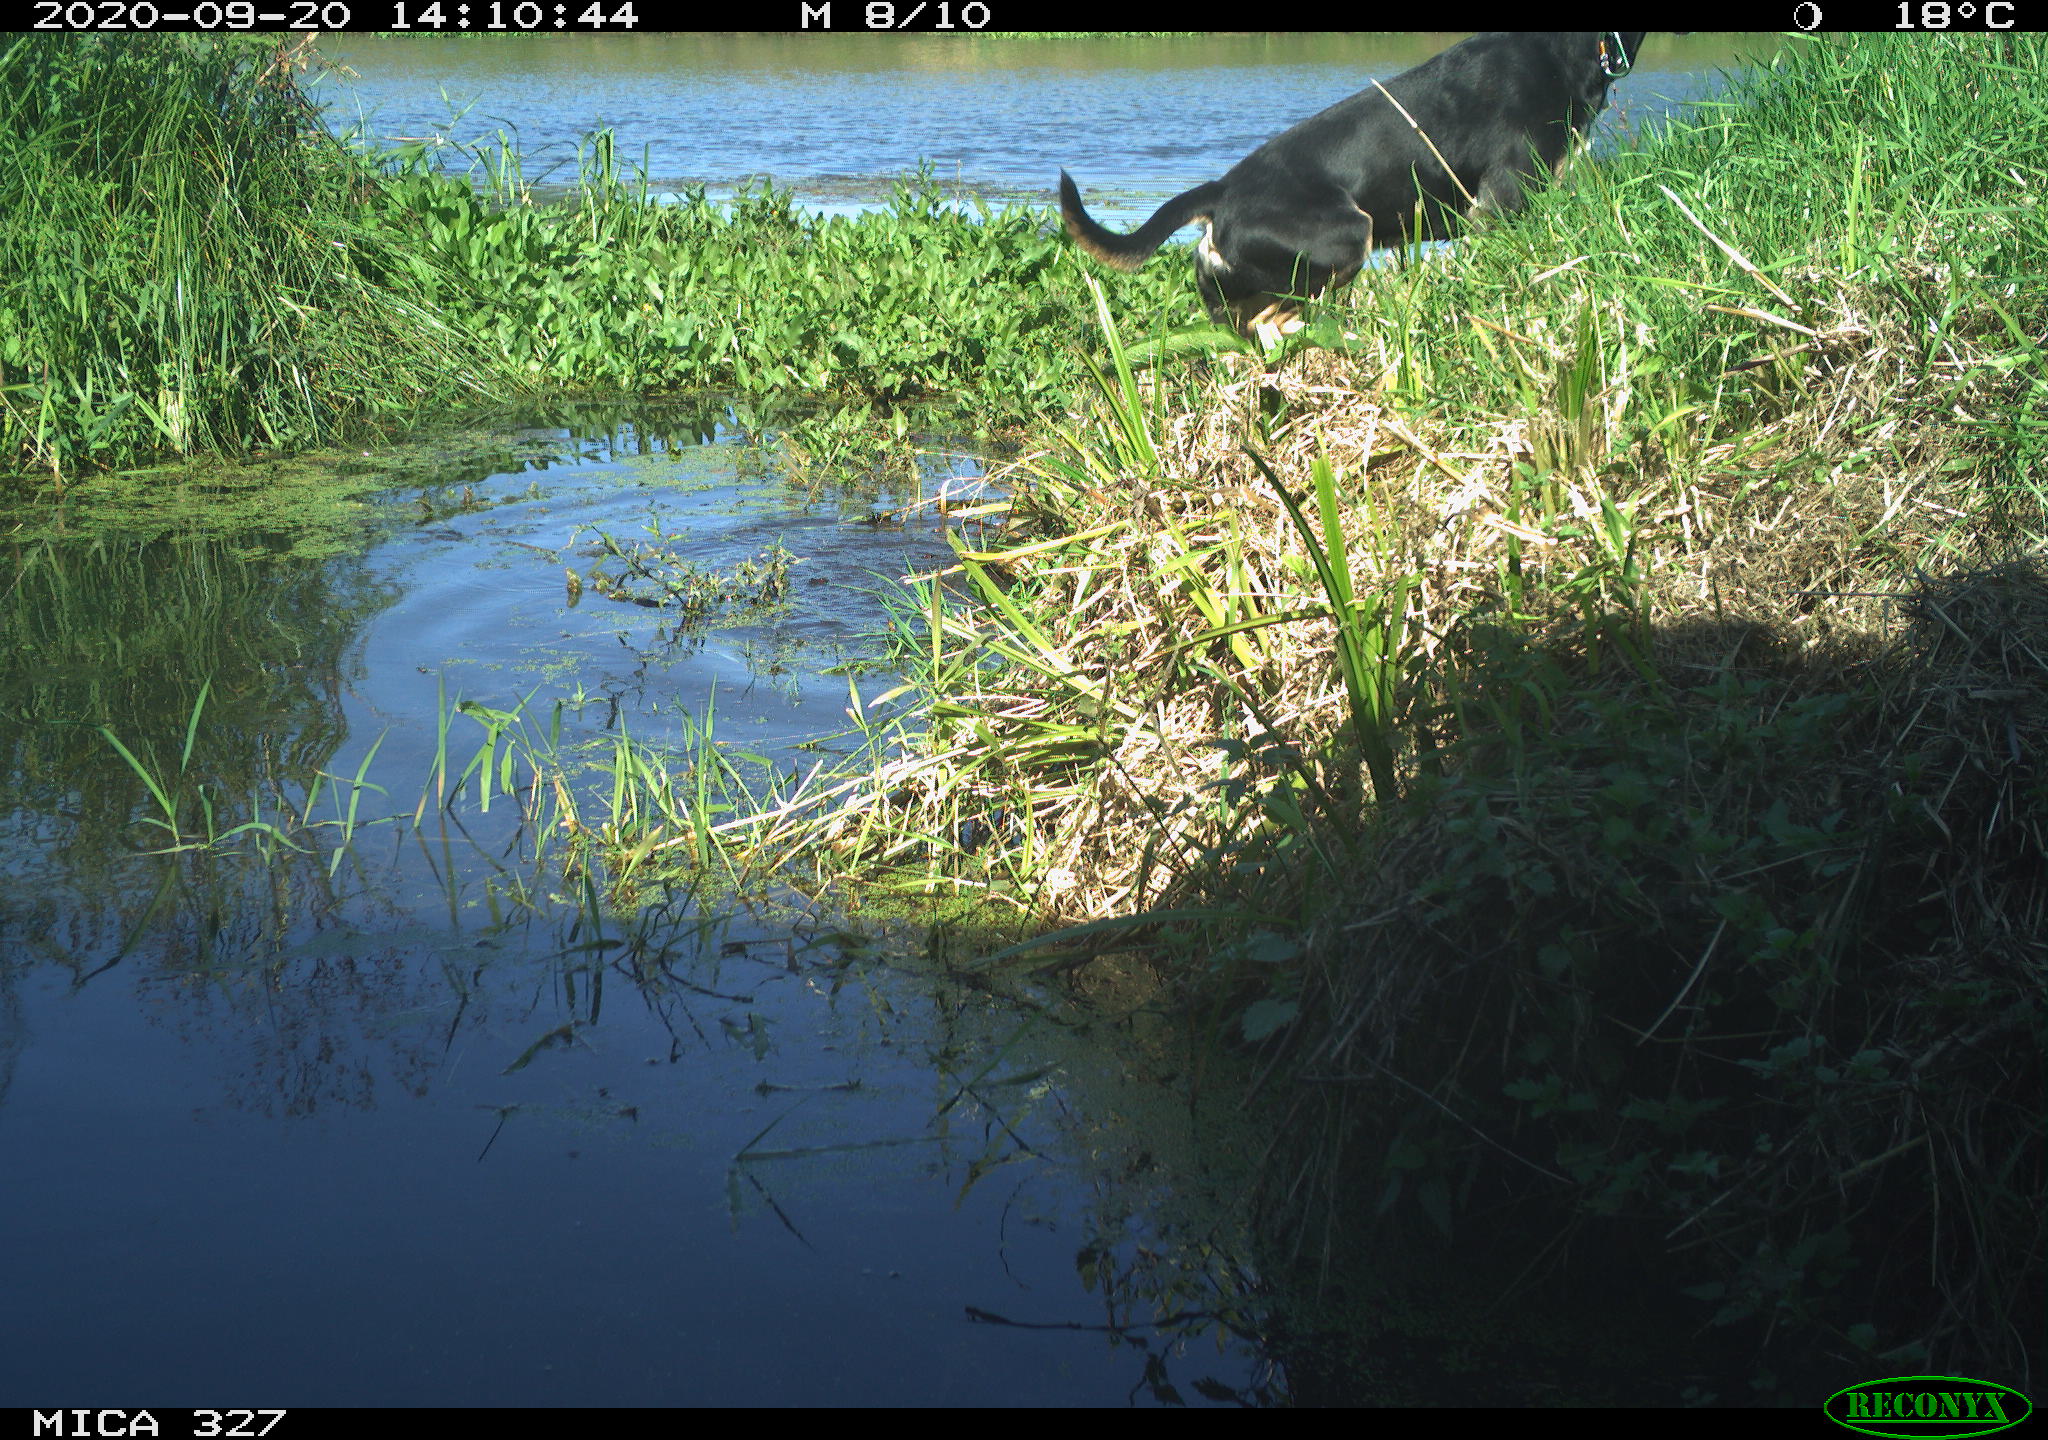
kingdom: Animalia
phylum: Chordata
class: Mammalia
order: Carnivora
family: Canidae
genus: Canis
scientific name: Canis lupus
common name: Gray wolf
